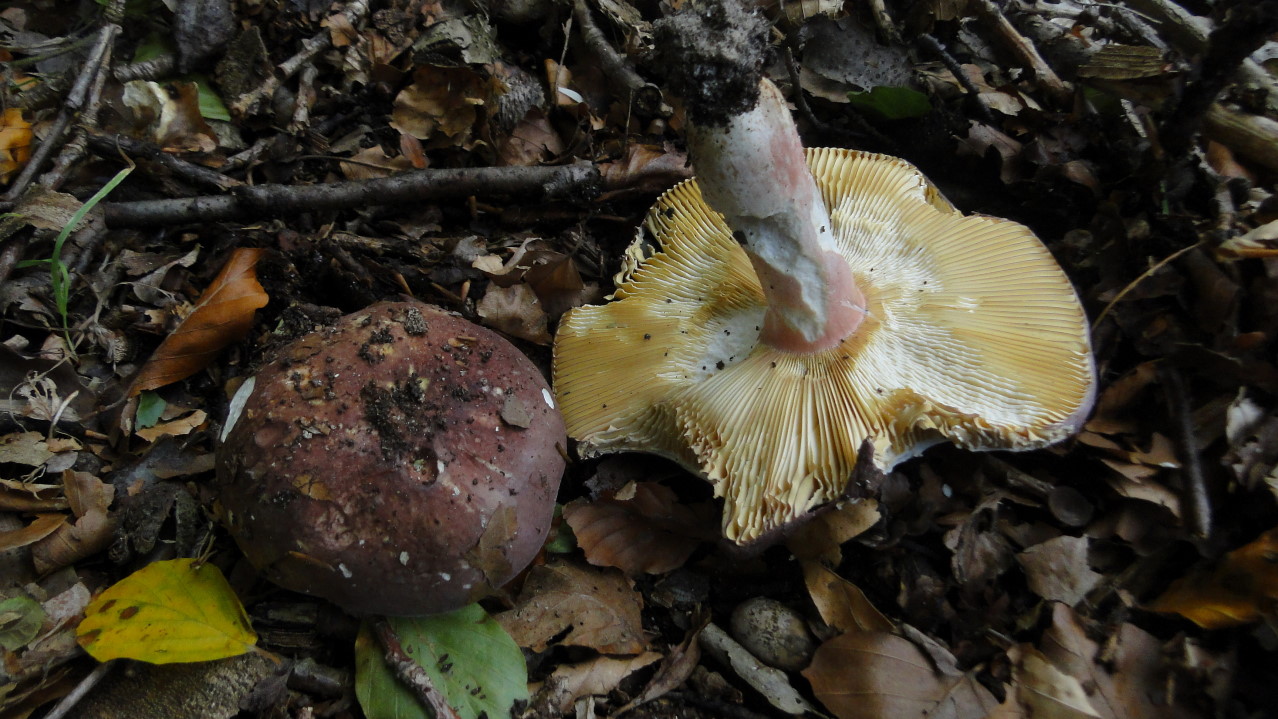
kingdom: Fungi
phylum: Basidiomycota
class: Agaricomycetes
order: Russulales
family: Russulaceae
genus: Russula
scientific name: Russula olivacea
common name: stor skørhat
